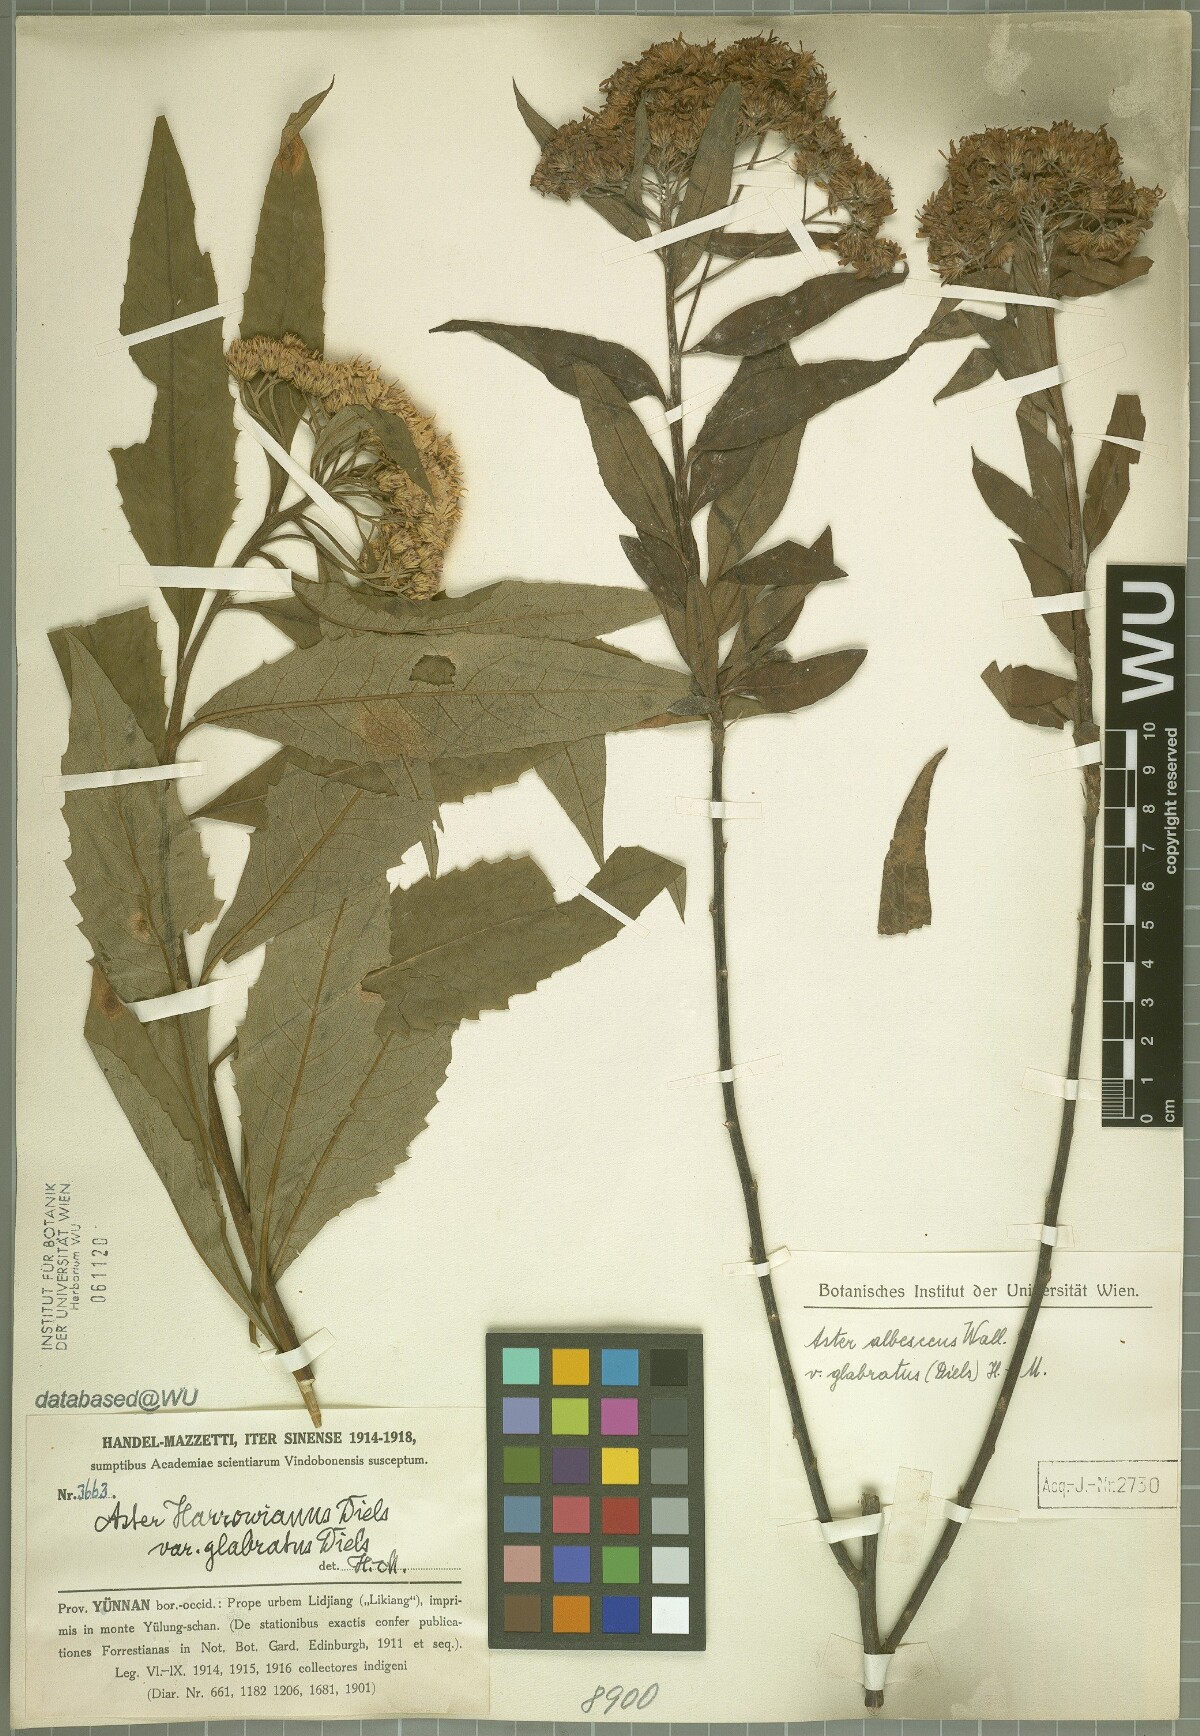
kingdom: Plantae
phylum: Tracheophyta
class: Magnoliopsida
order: Asterales
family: Asteraceae
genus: Sinosidus
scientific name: Sinosidus albescens
